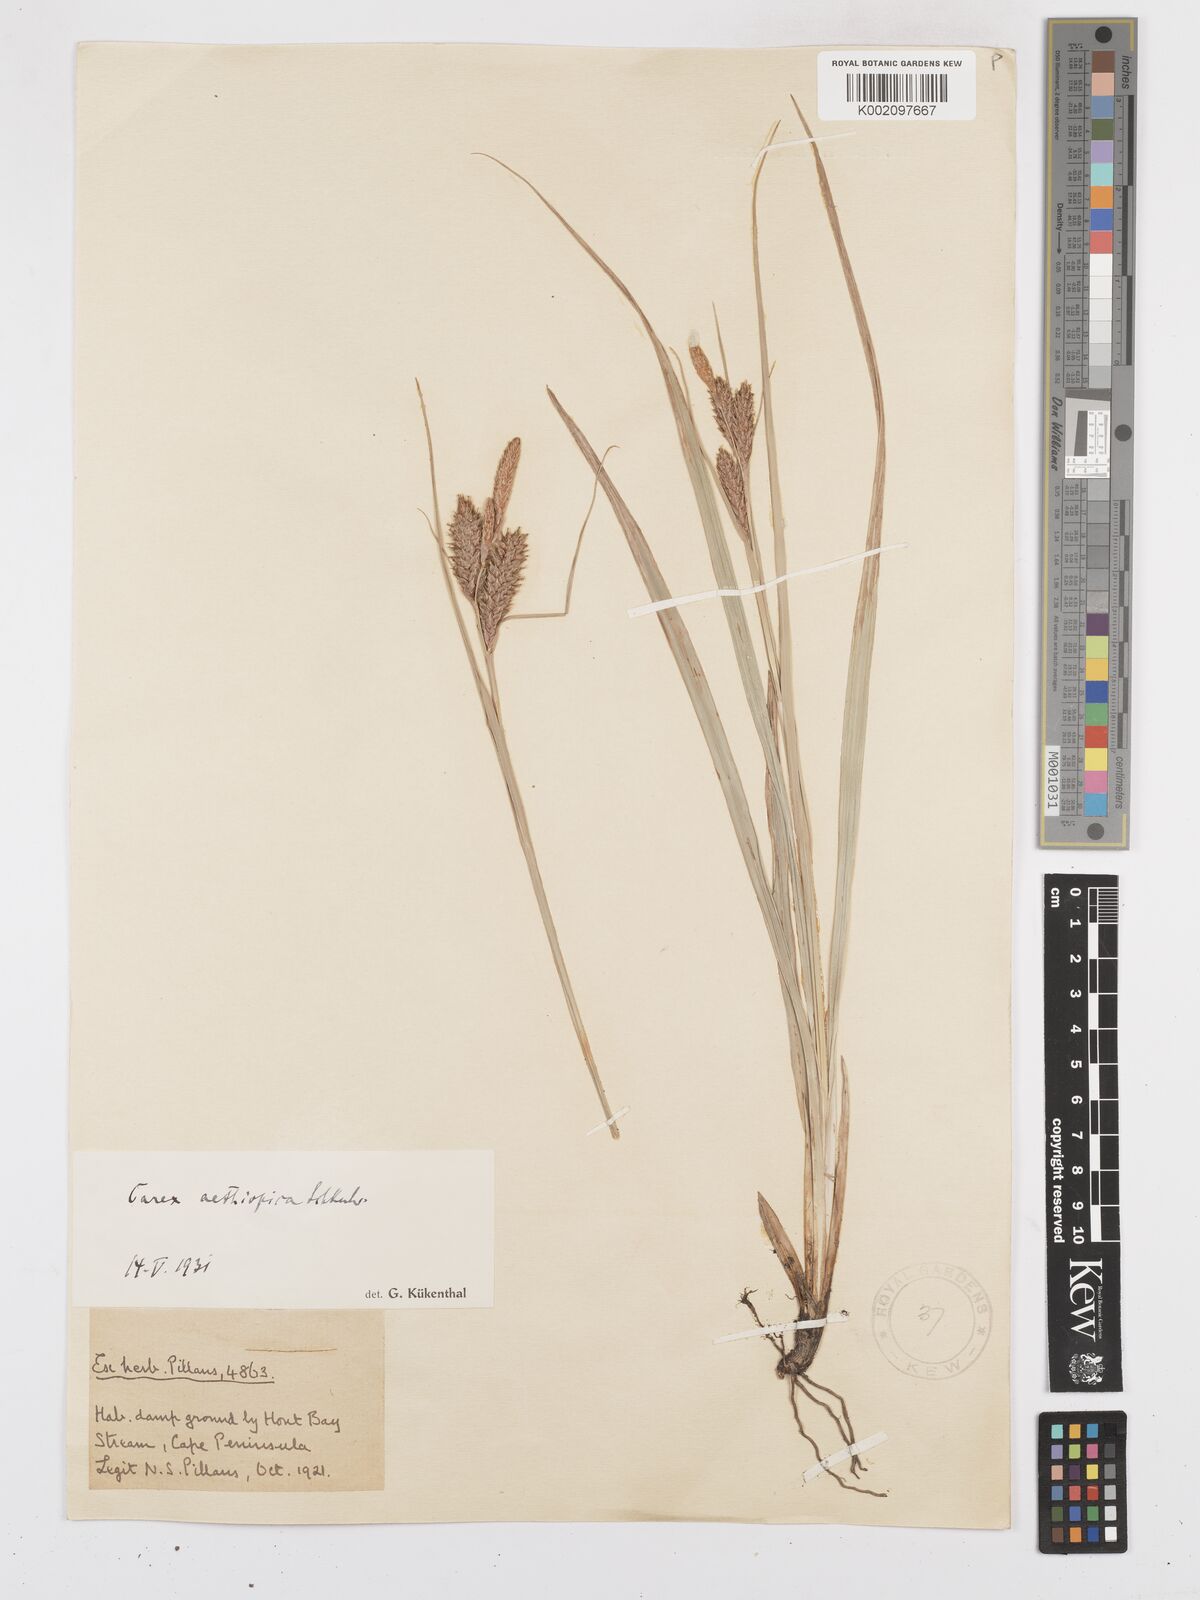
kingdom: Plantae
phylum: Tracheophyta
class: Liliopsida
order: Poales
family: Cyperaceae
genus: Carex
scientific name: Carex clavata
